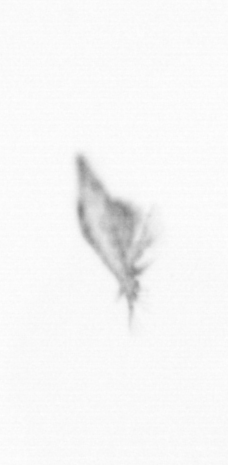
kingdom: Chromista
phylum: Ochrophyta
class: Bacillariophyceae
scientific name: Bacillariophyceae
